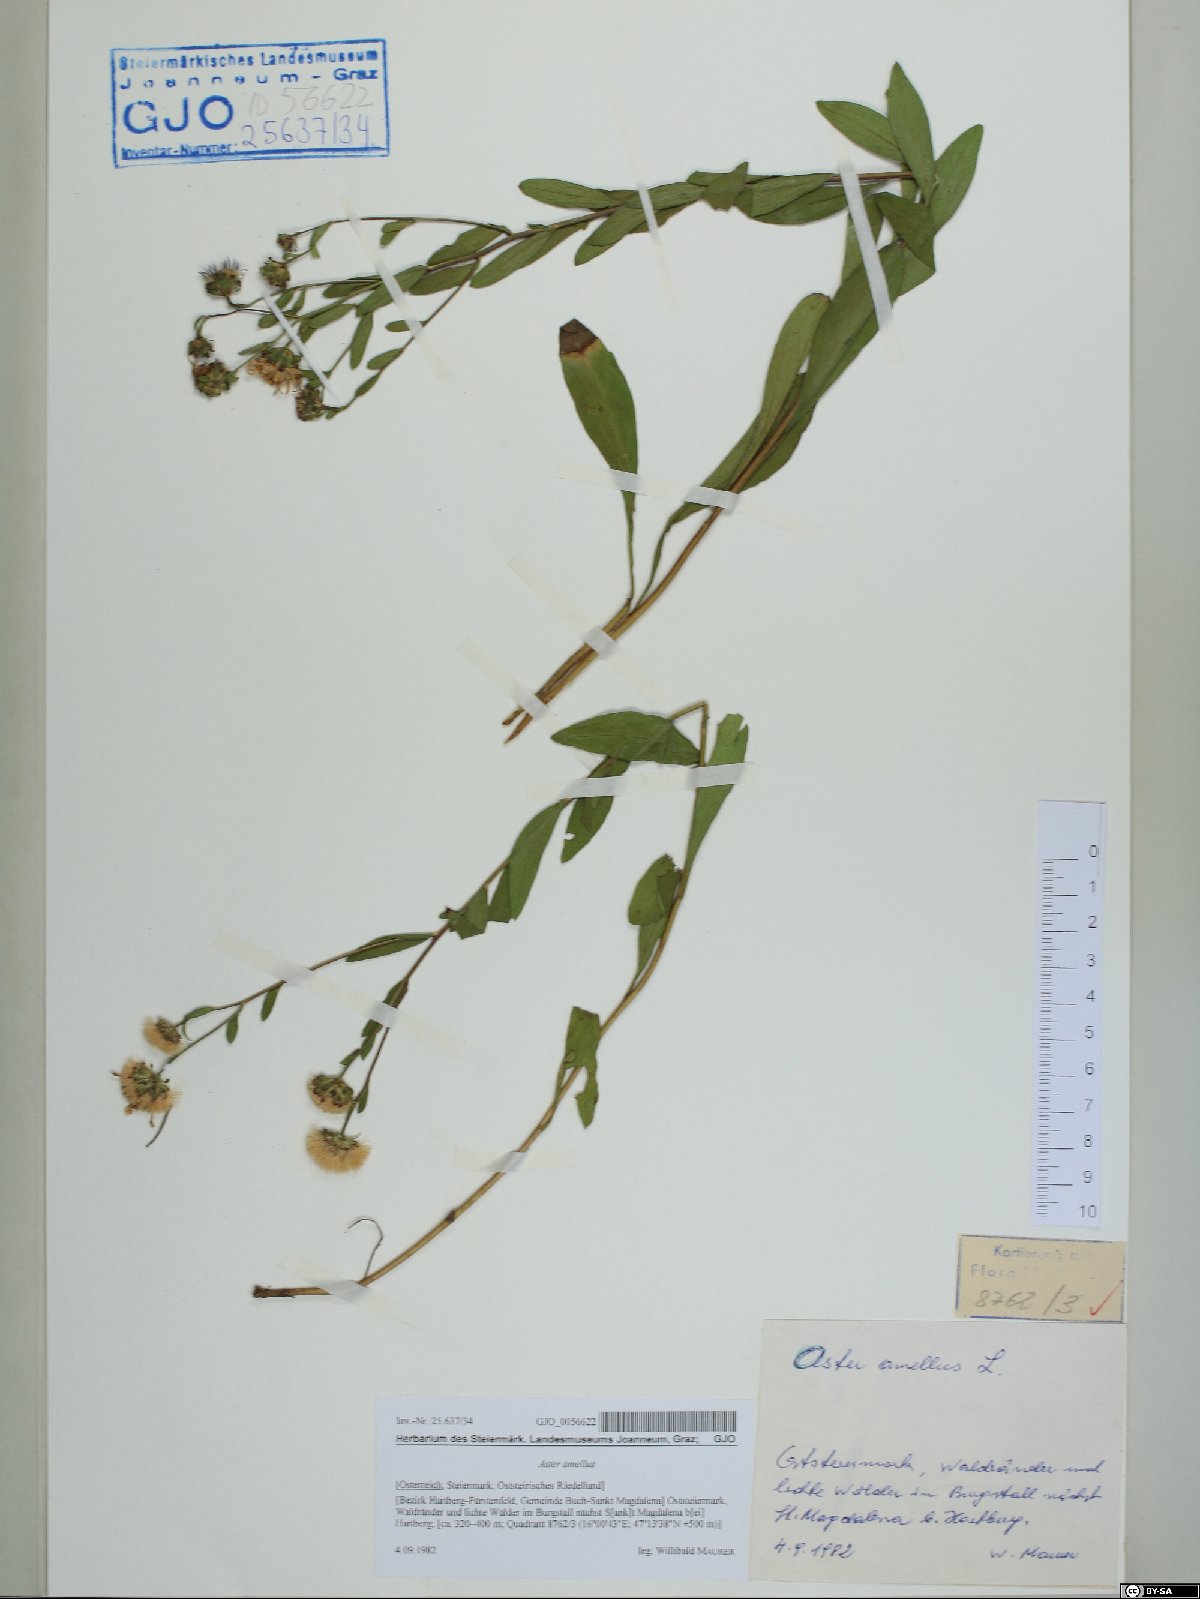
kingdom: Plantae
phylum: Tracheophyta
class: Magnoliopsida
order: Asterales
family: Asteraceae
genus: Aster
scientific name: Aster amellus
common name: European michaelmas daisy
